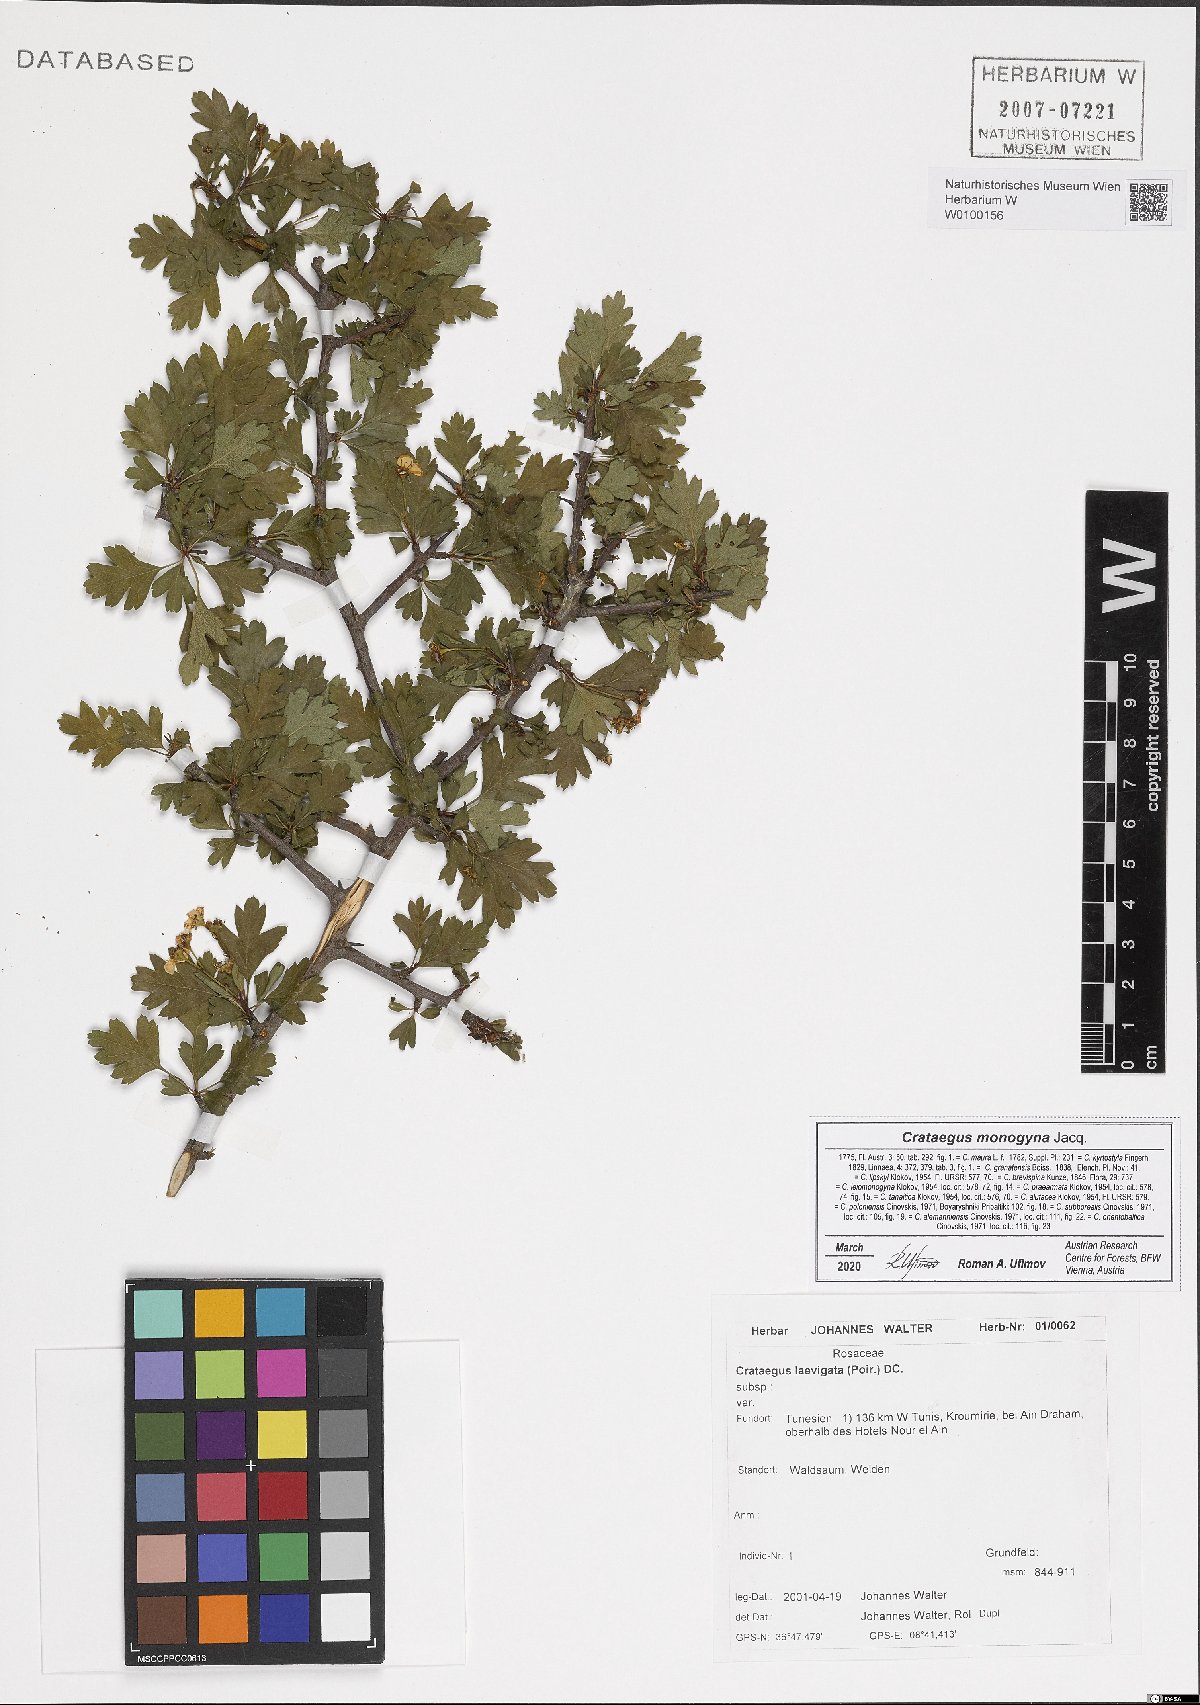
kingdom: Plantae
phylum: Tracheophyta
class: Magnoliopsida
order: Rosales
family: Rosaceae
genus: Crataegus
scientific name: Crataegus monogyna
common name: Hawthorn
